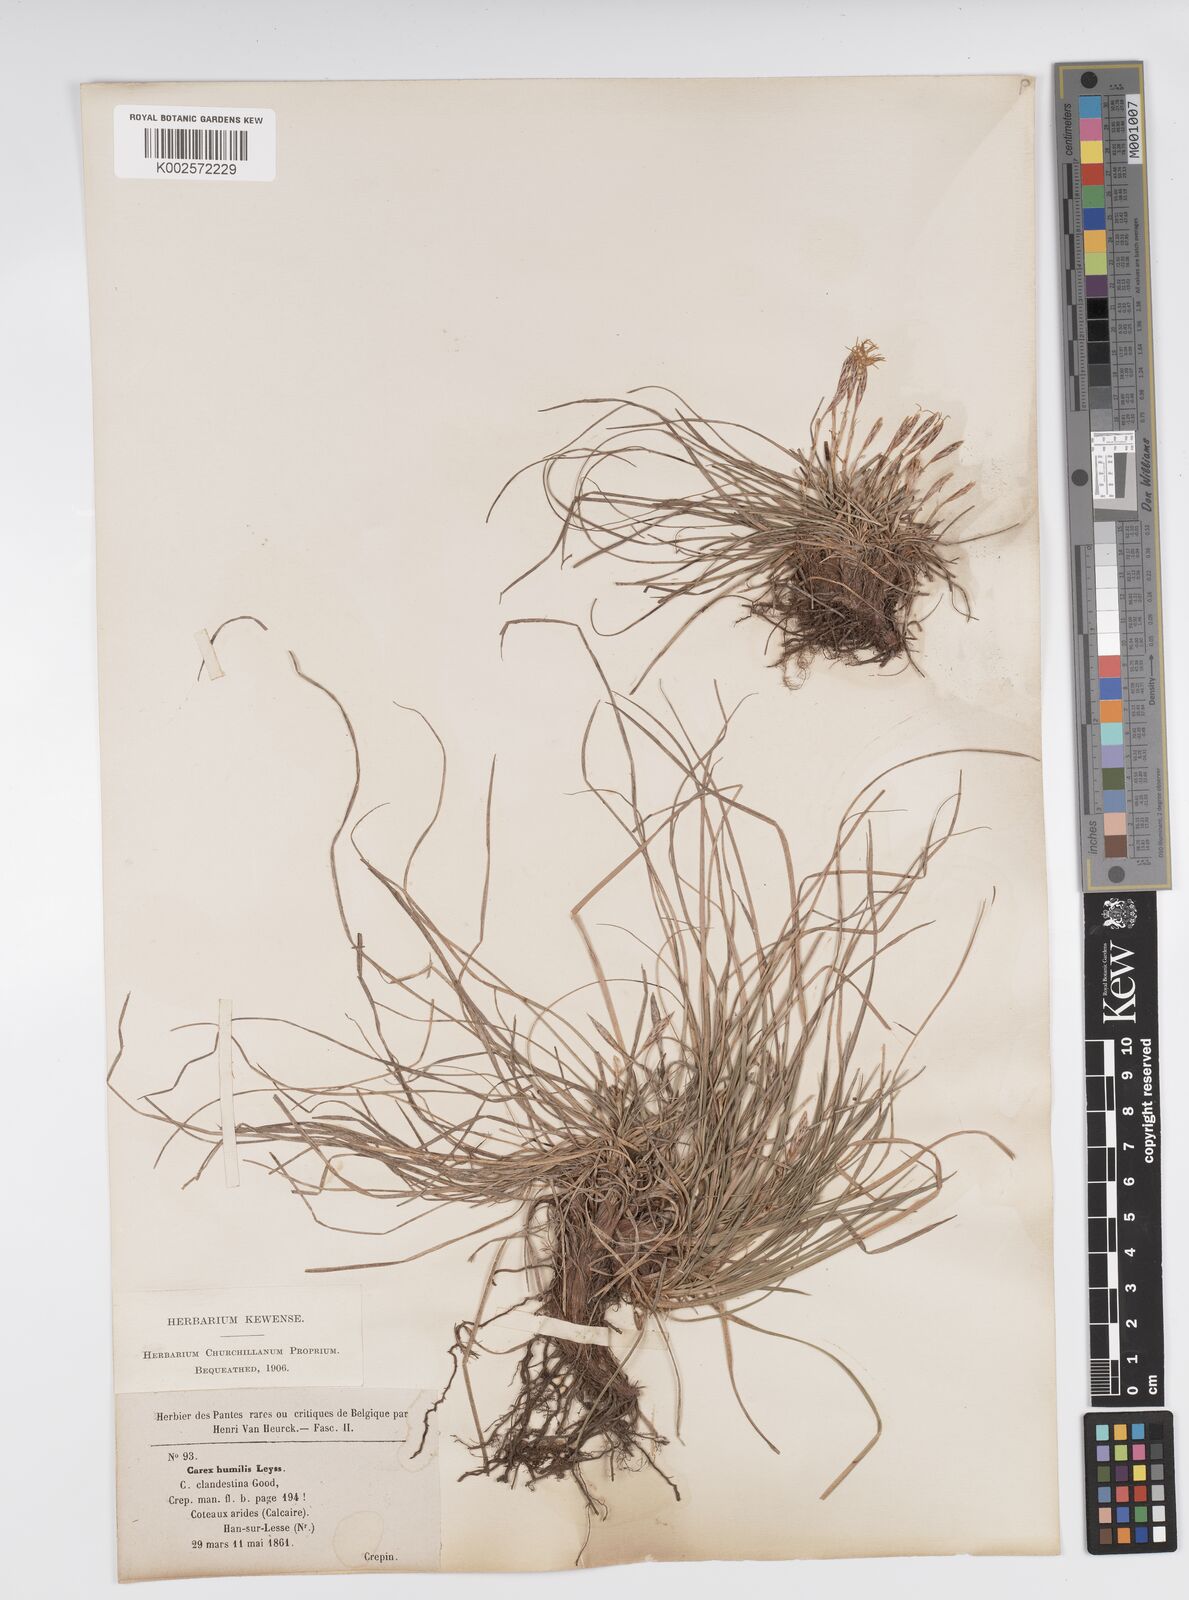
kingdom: Plantae
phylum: Tracheophyta
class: Liliopsida
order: Poales
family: Cyperaceae
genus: Carex
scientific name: Carex humilis
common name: Dwarf sedge
